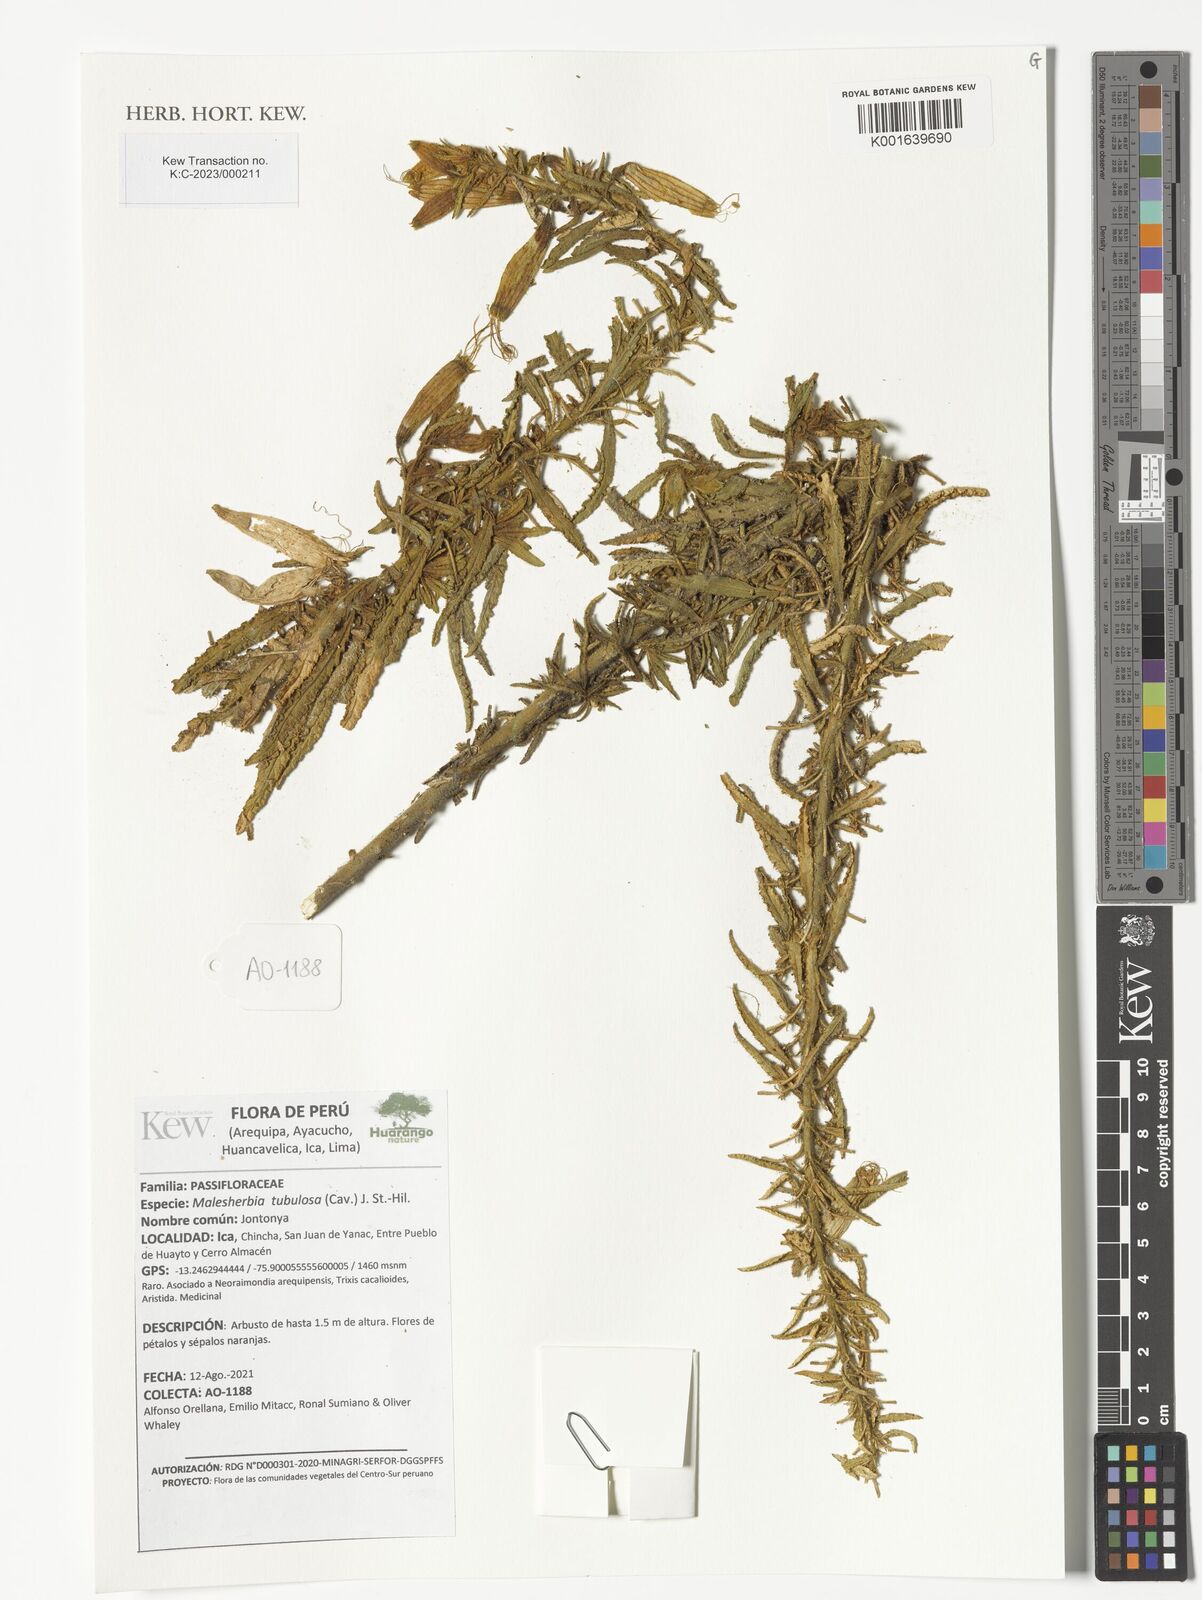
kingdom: Plantae
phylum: Tracheophyta
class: Magnoliopsida
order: Malpighiales
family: Malesherbiaceae
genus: Malesherbia
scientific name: Malesherbia tubulosa
